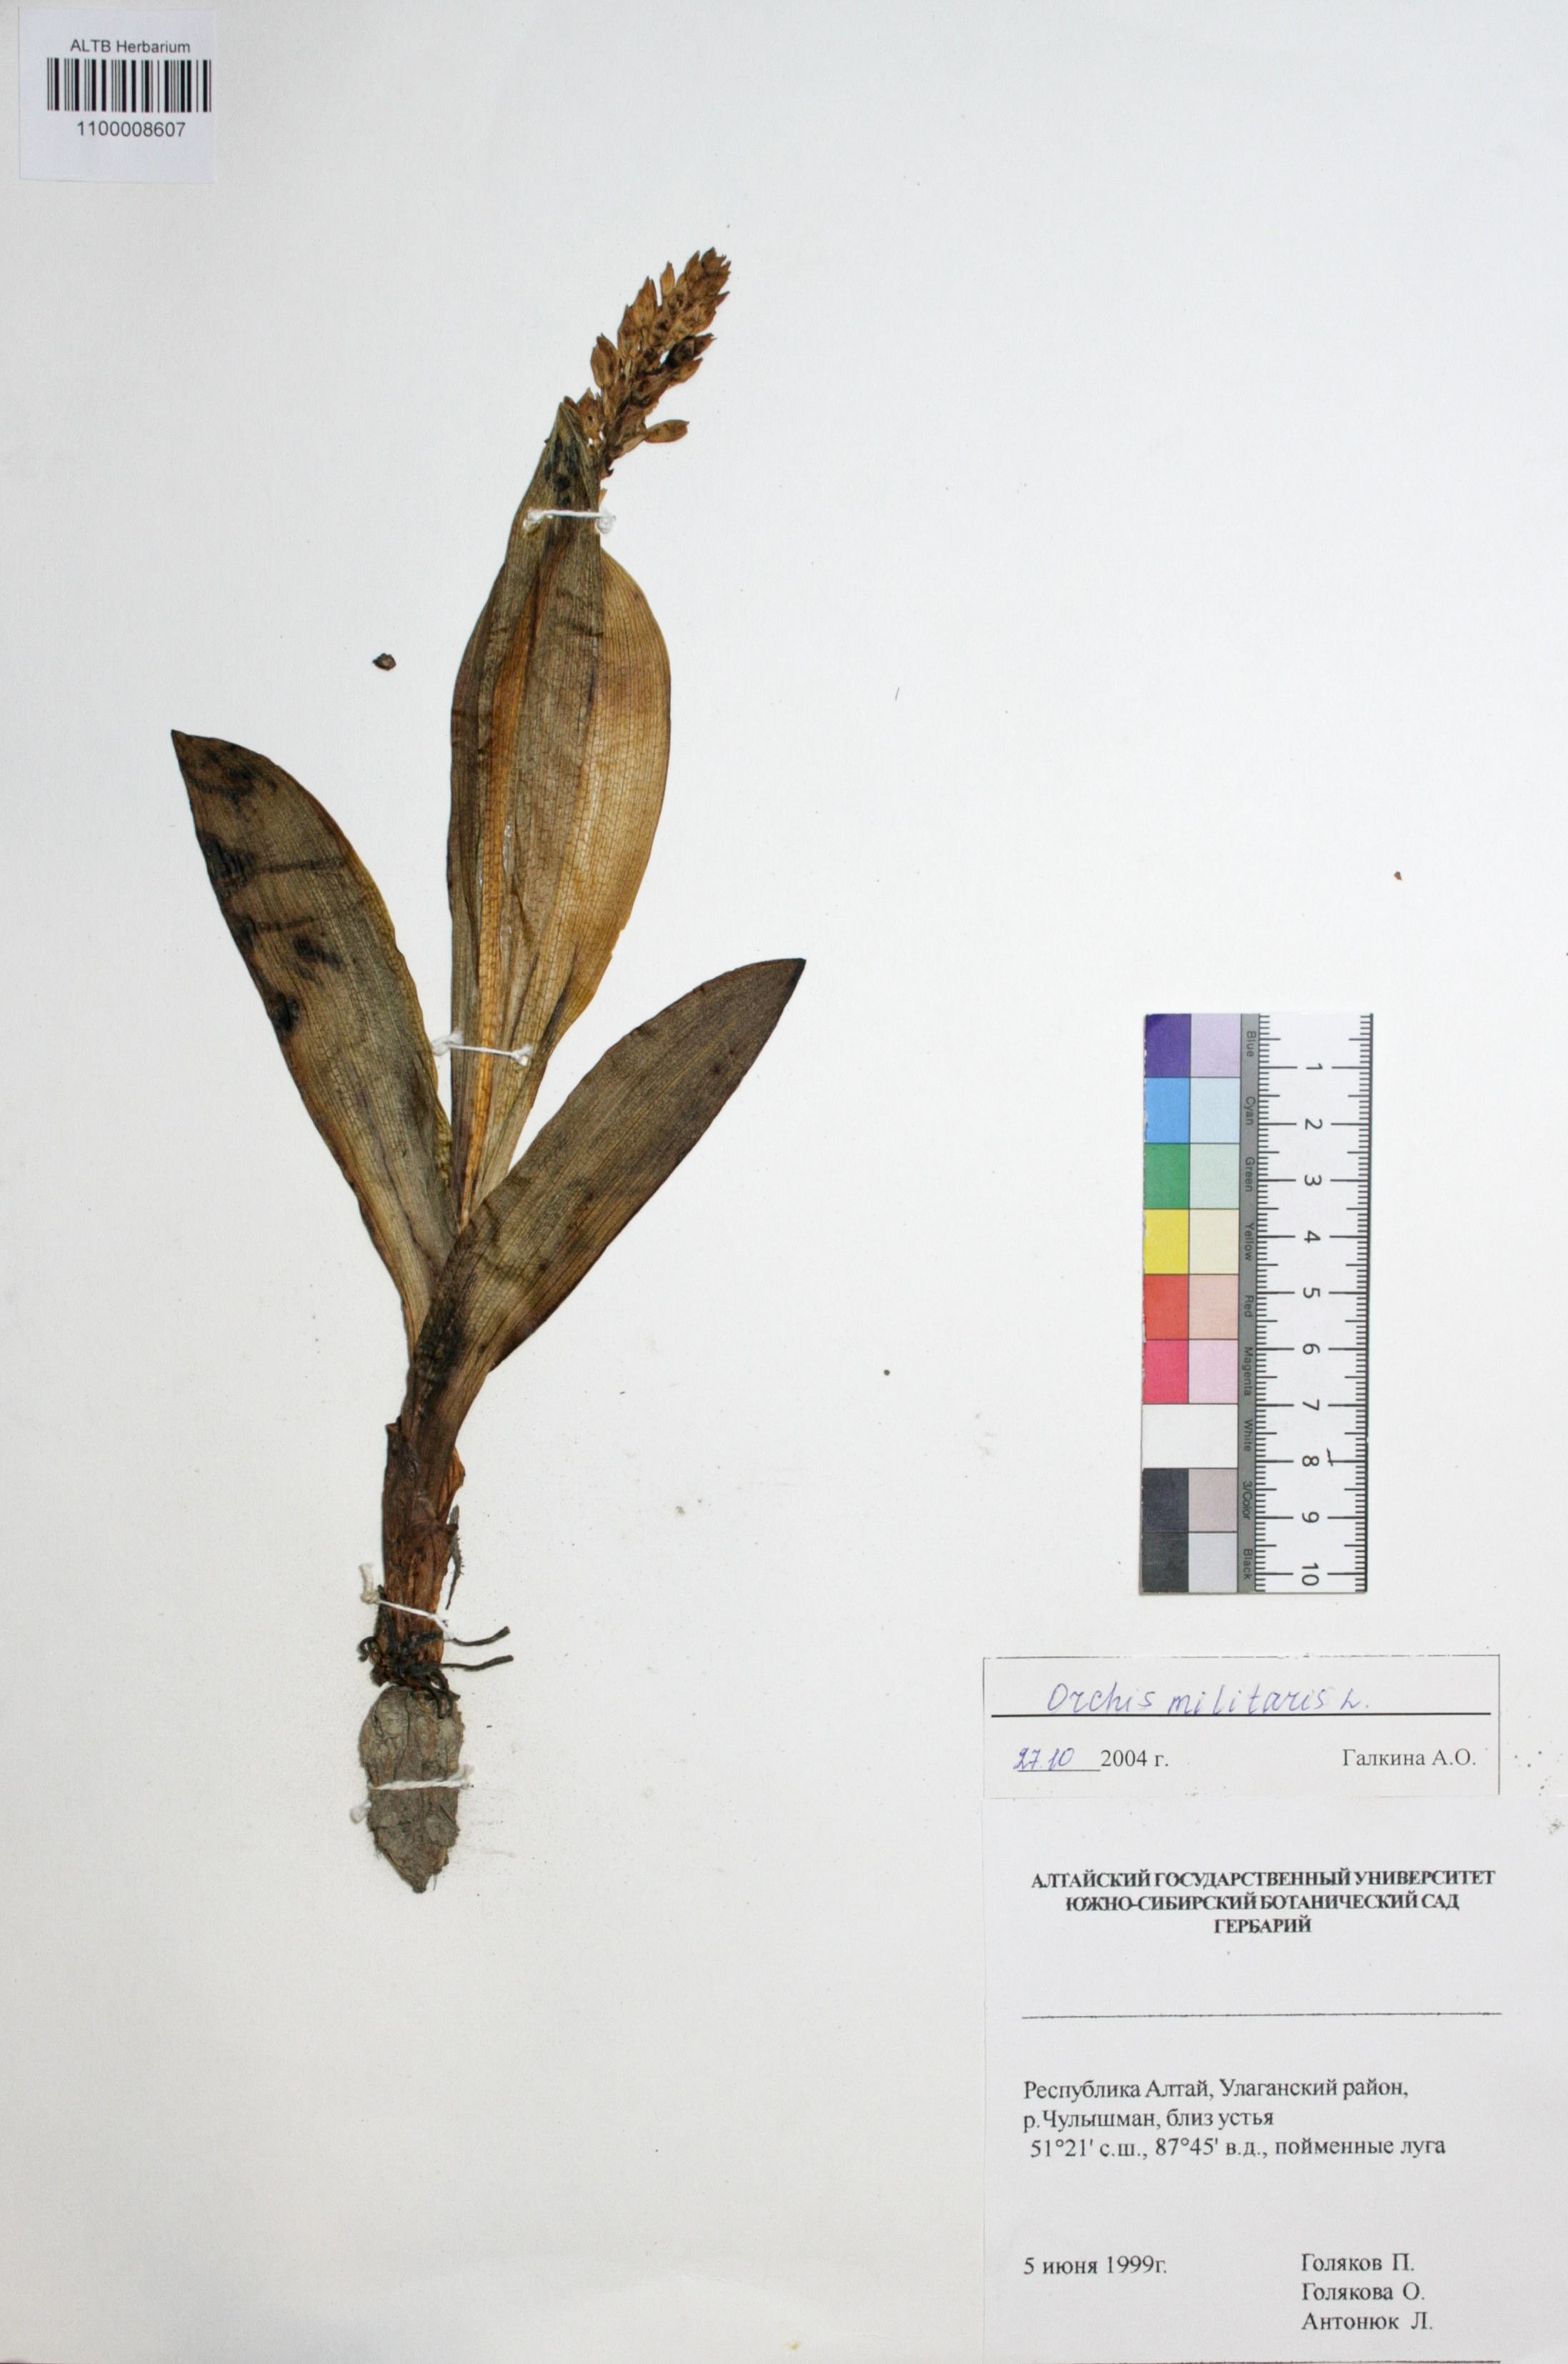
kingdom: Plantae
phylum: Tracheophyta
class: Liliopsida
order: Asparagales
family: Orchidaceae
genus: Orchis
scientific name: Orchis militaris
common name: Military orchid
